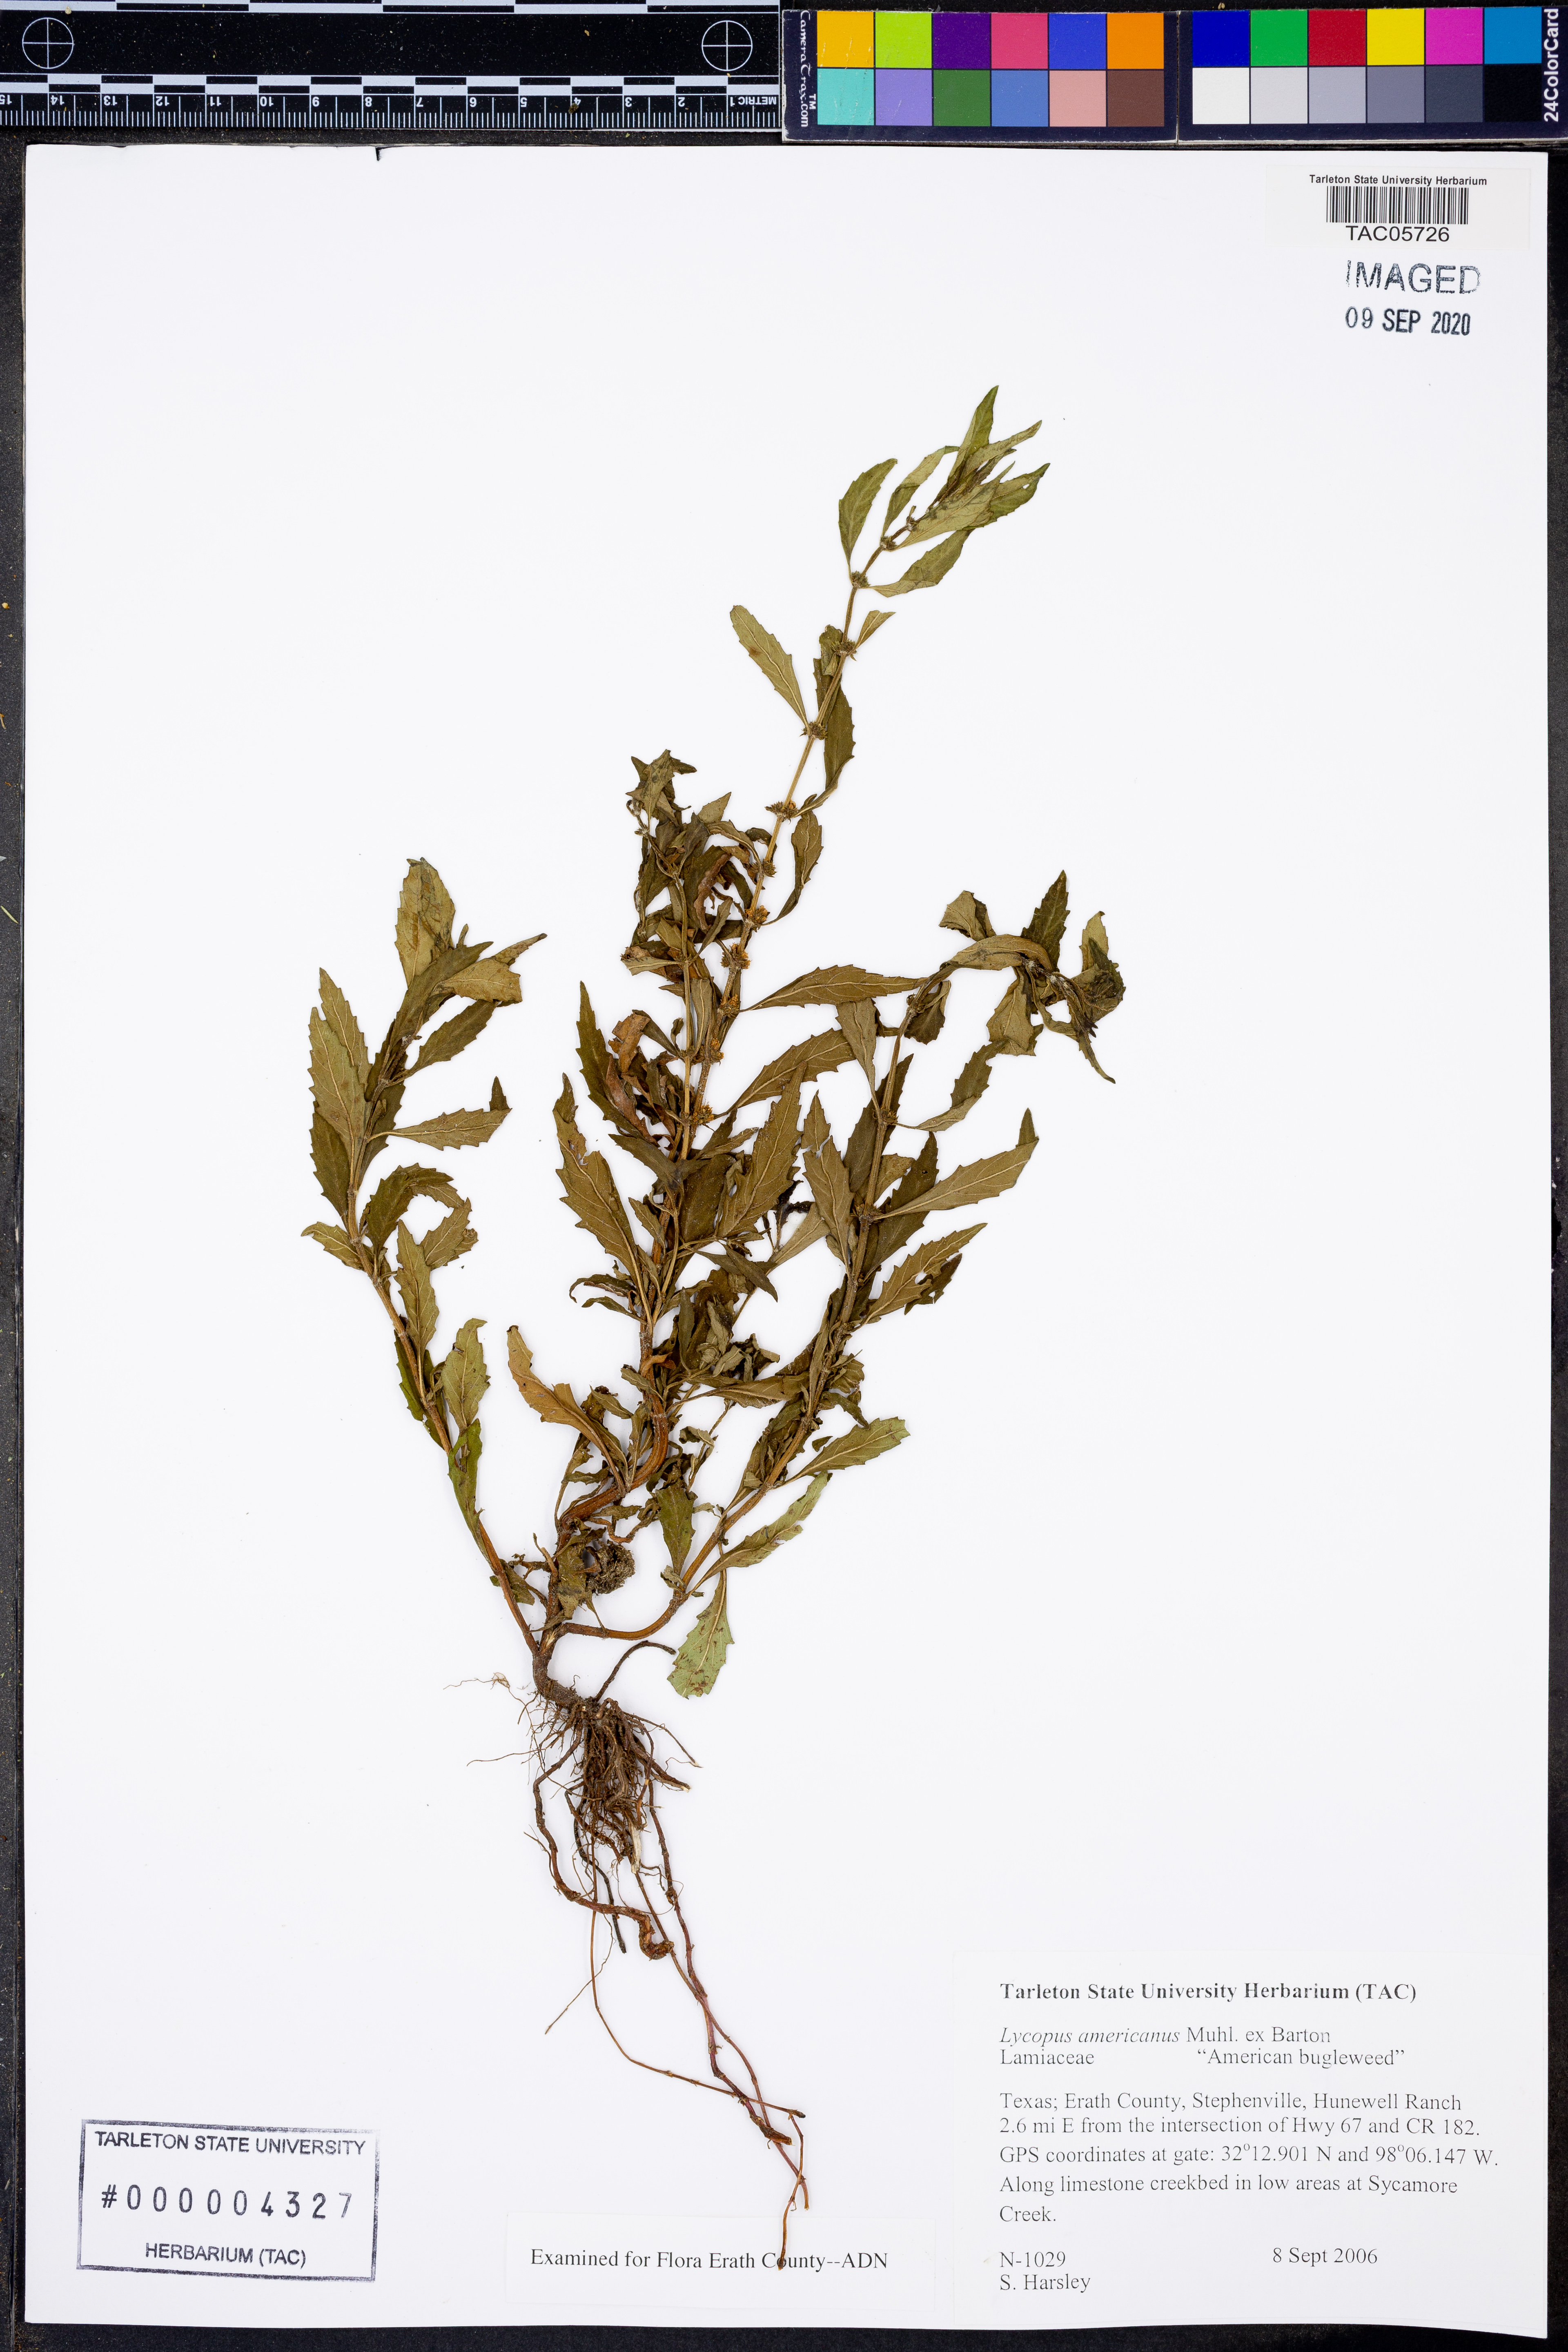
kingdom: Plantae
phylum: Tracheophyta
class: Magnoliopsida
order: Lamiales
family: Lamiaceae
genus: Lycopus
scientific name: Lycopus americanus
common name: American bugleweed
